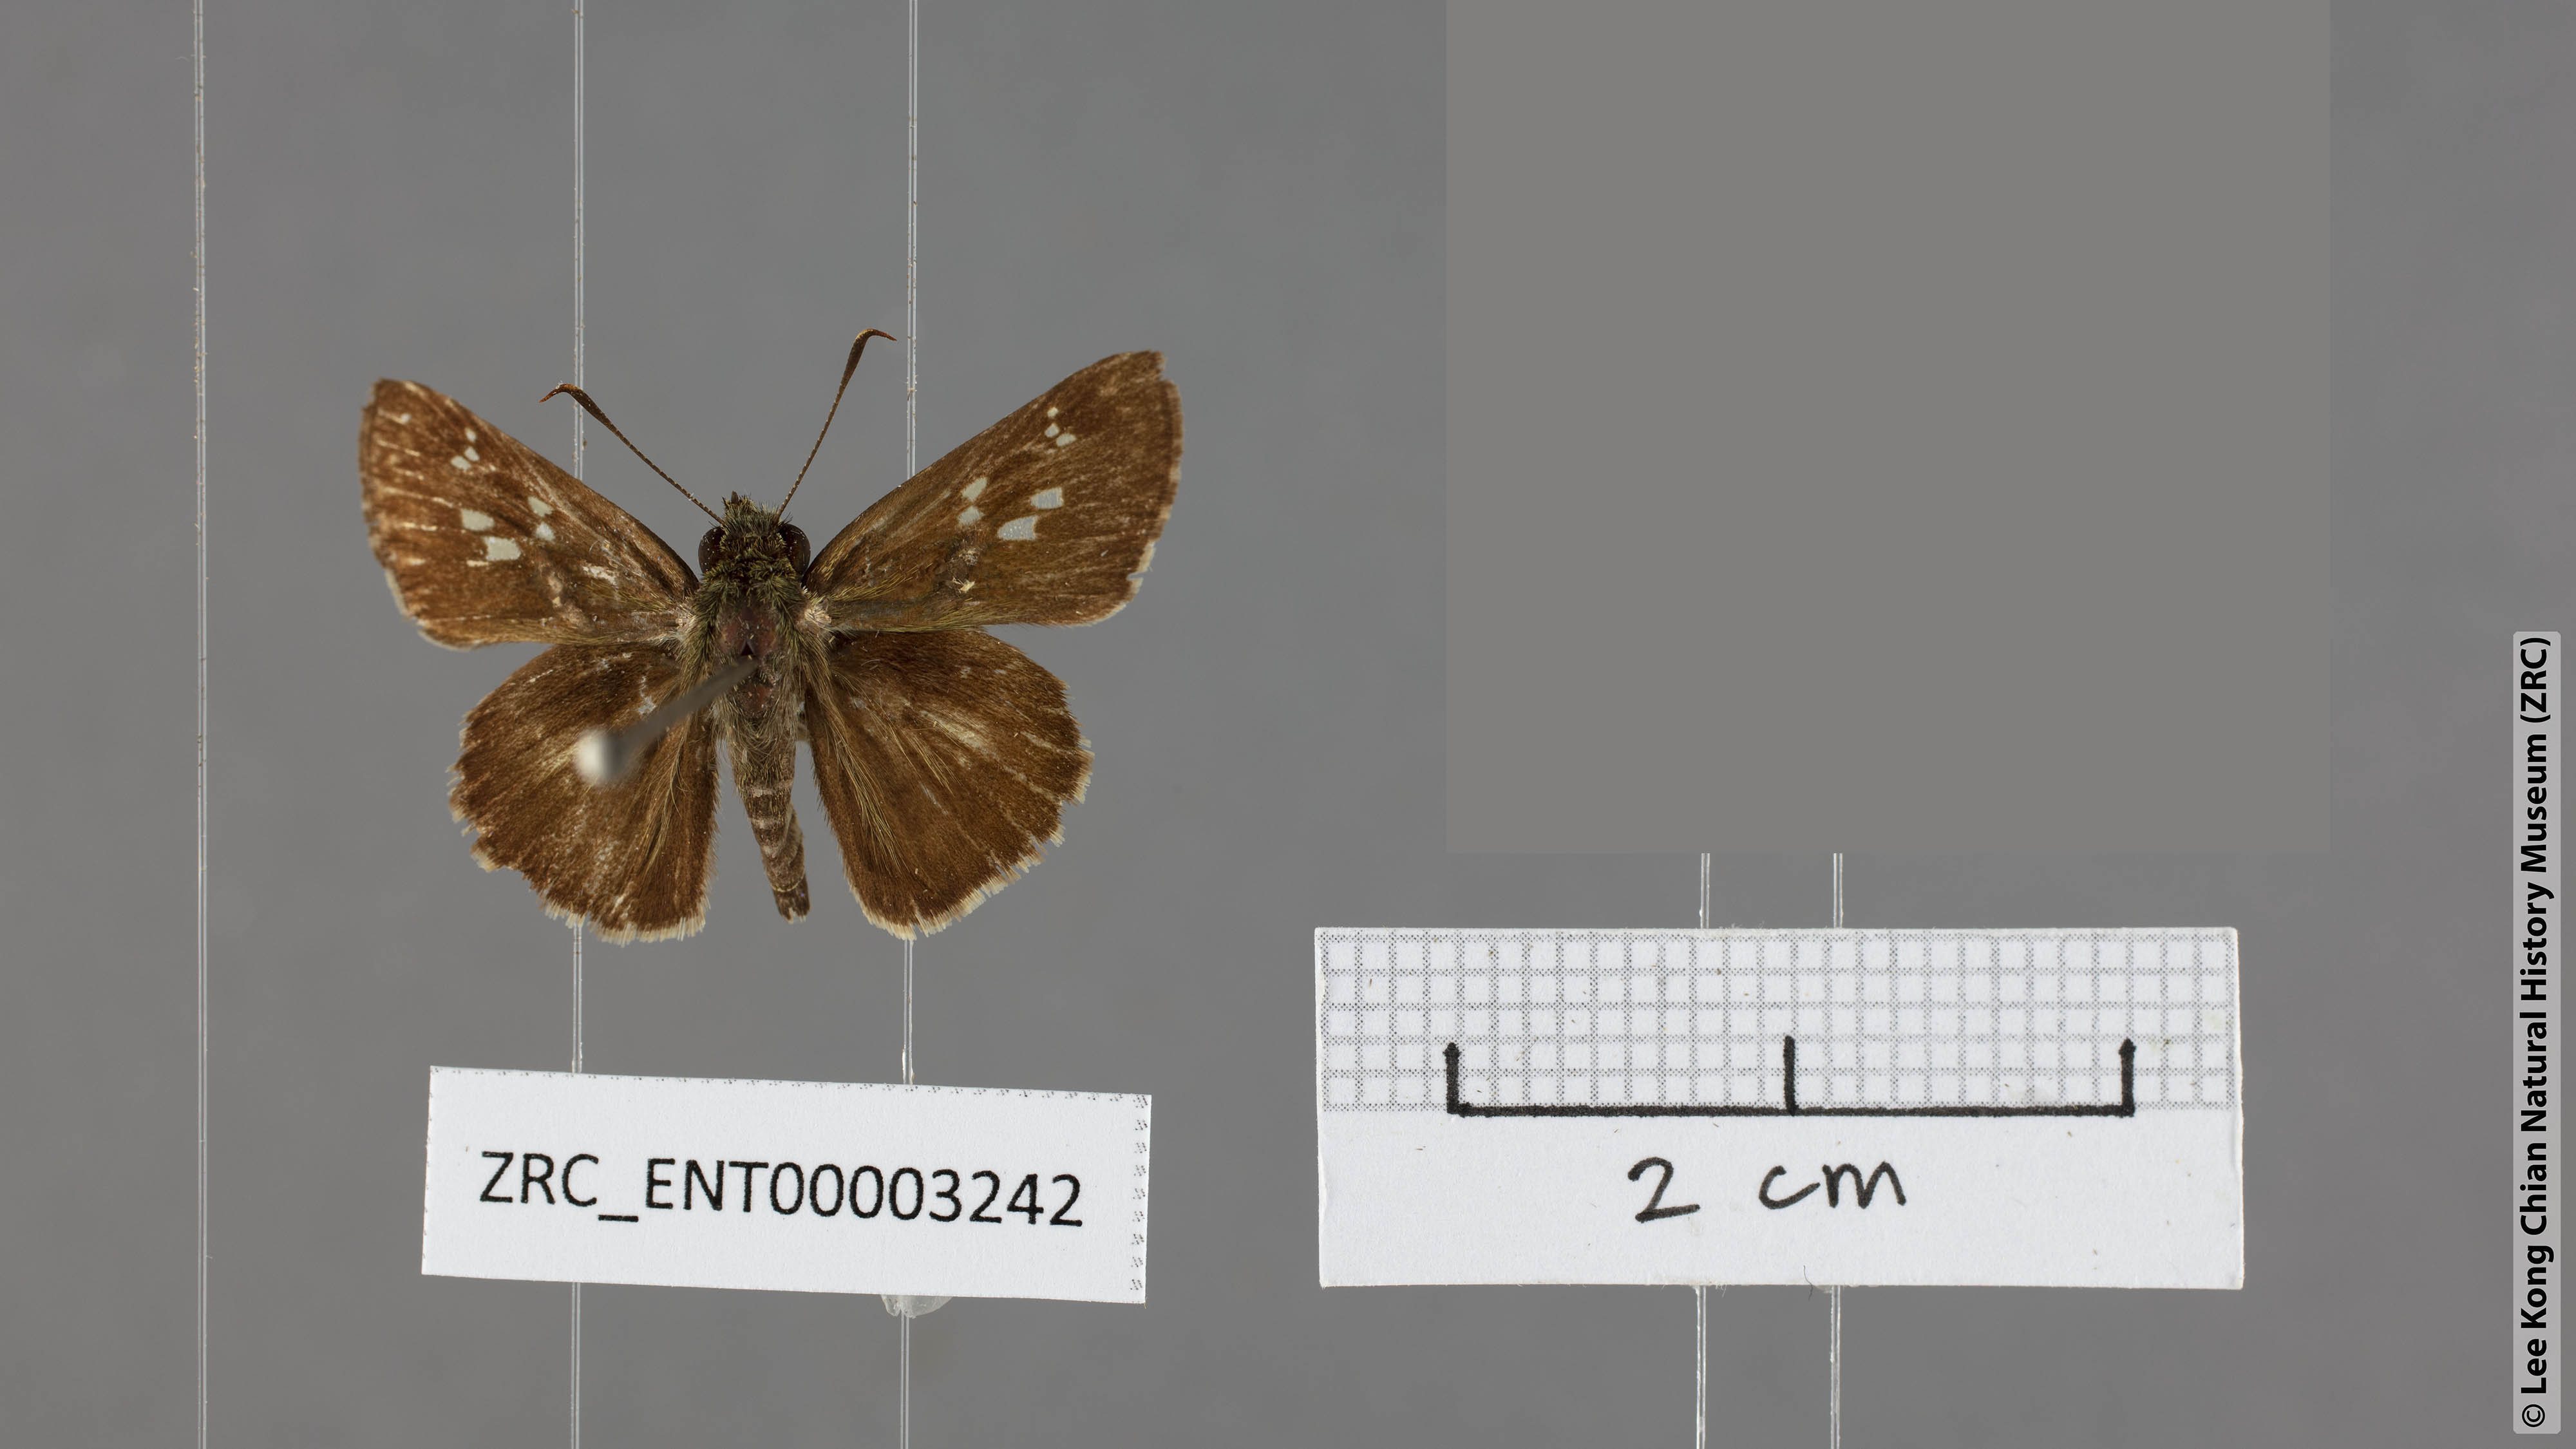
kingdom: Animalia
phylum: Arthropoda
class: Insecta
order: Lepidoptera
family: Hesperiidae
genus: Halpe
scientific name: Halpe porus
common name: Moore's ace
